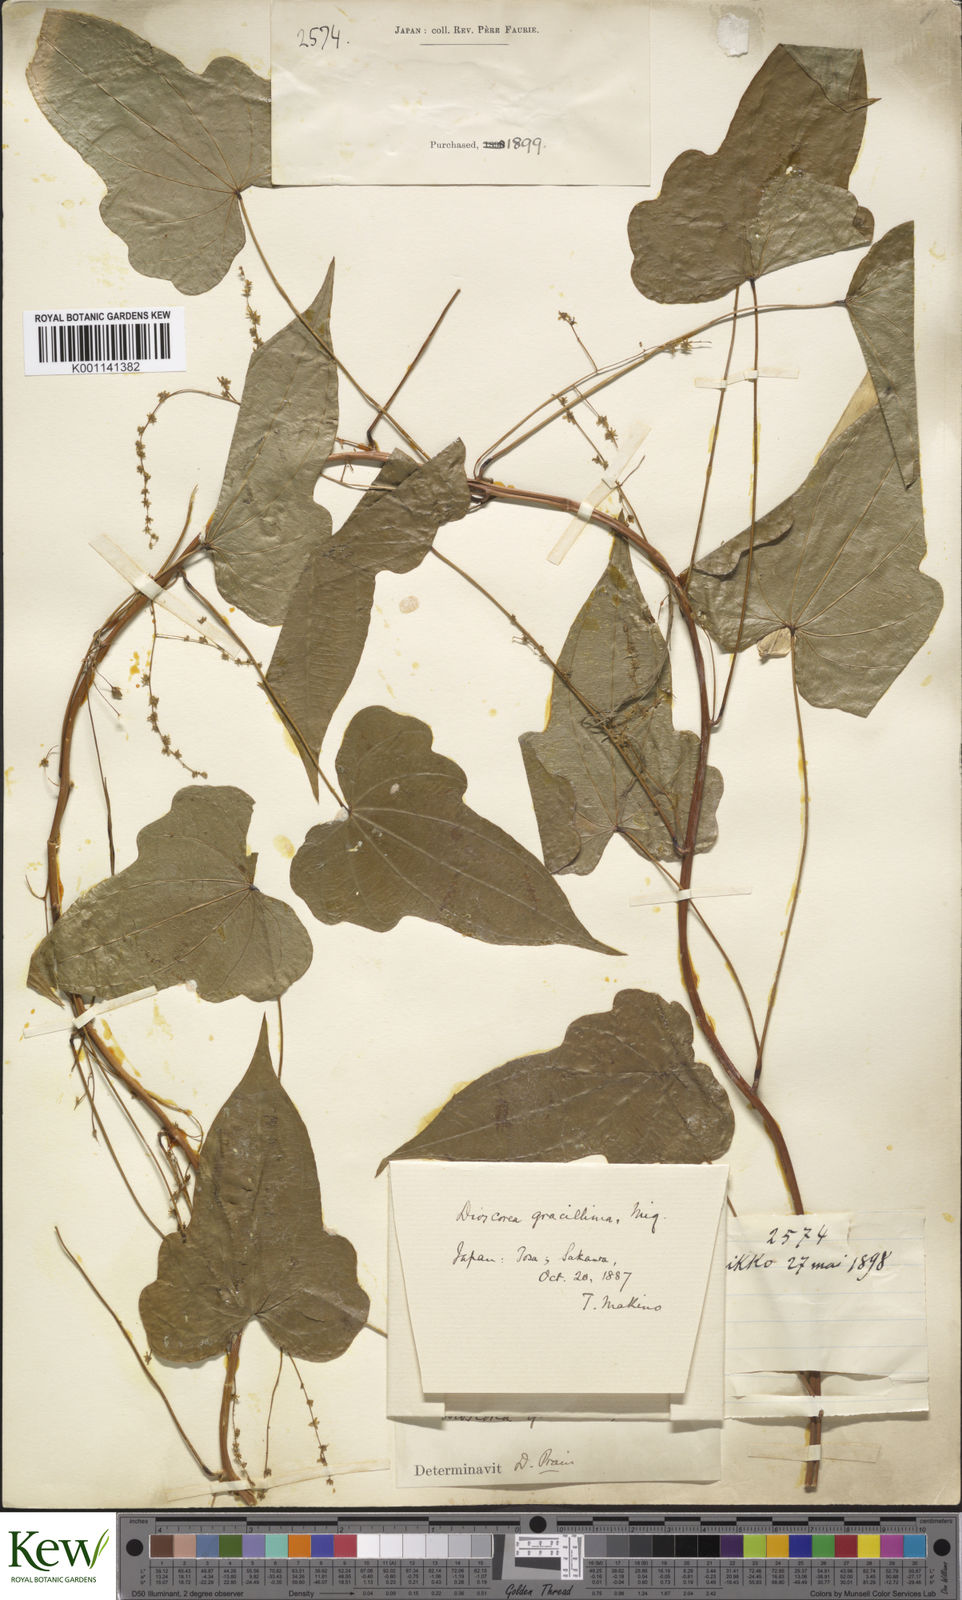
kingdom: Plantae
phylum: Tracheophyta
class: Liliopsida
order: Dioscoreales
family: Dioscoreaceae
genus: Dioscorea
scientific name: Dioscorea gracillima
